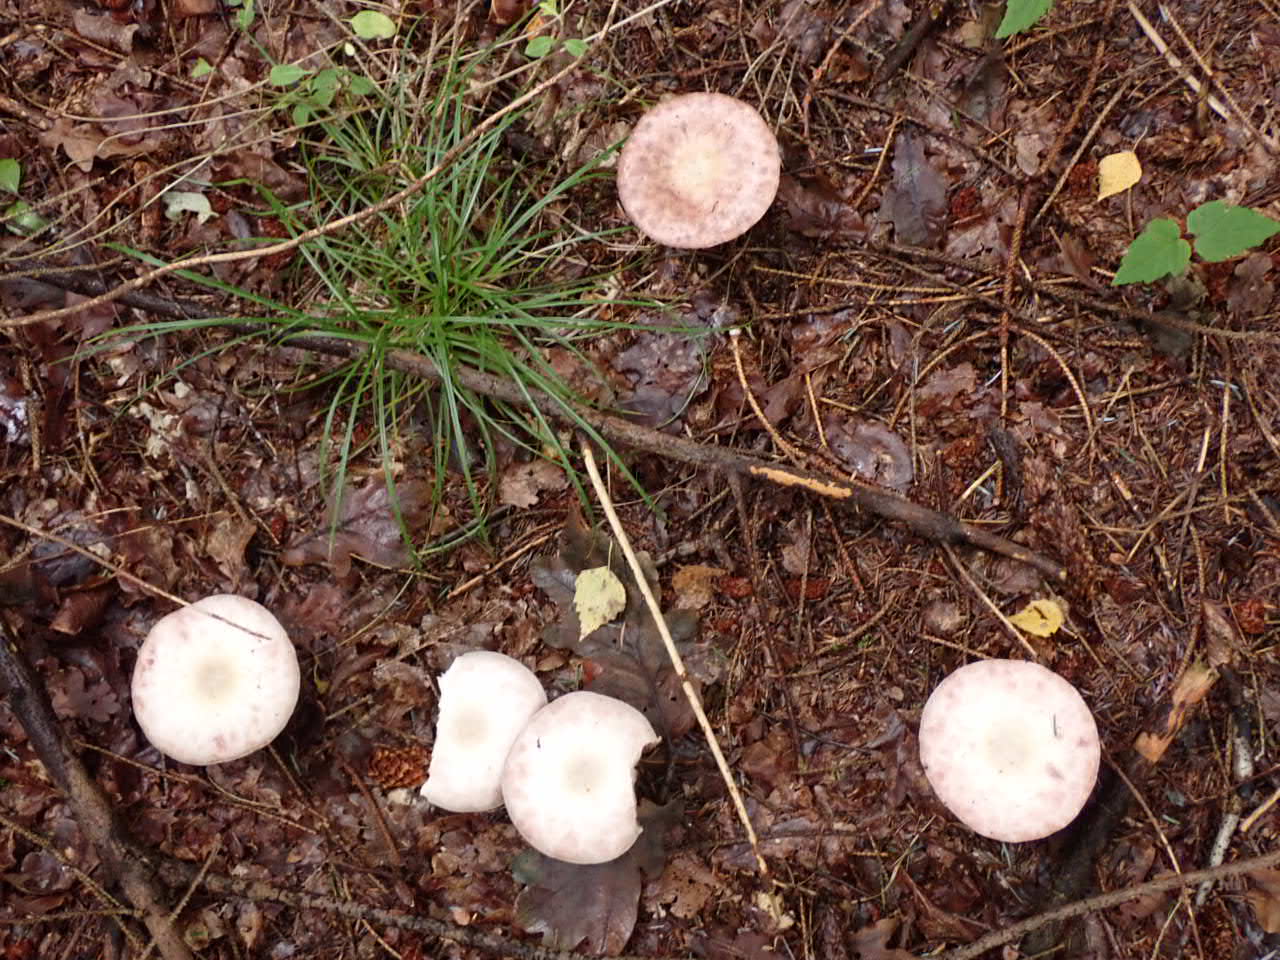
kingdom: Fungi
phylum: Basidiomycota
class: Agaricomycetes
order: Agaricales
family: Agaricaceae
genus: Agaricus
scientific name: Agaricus
